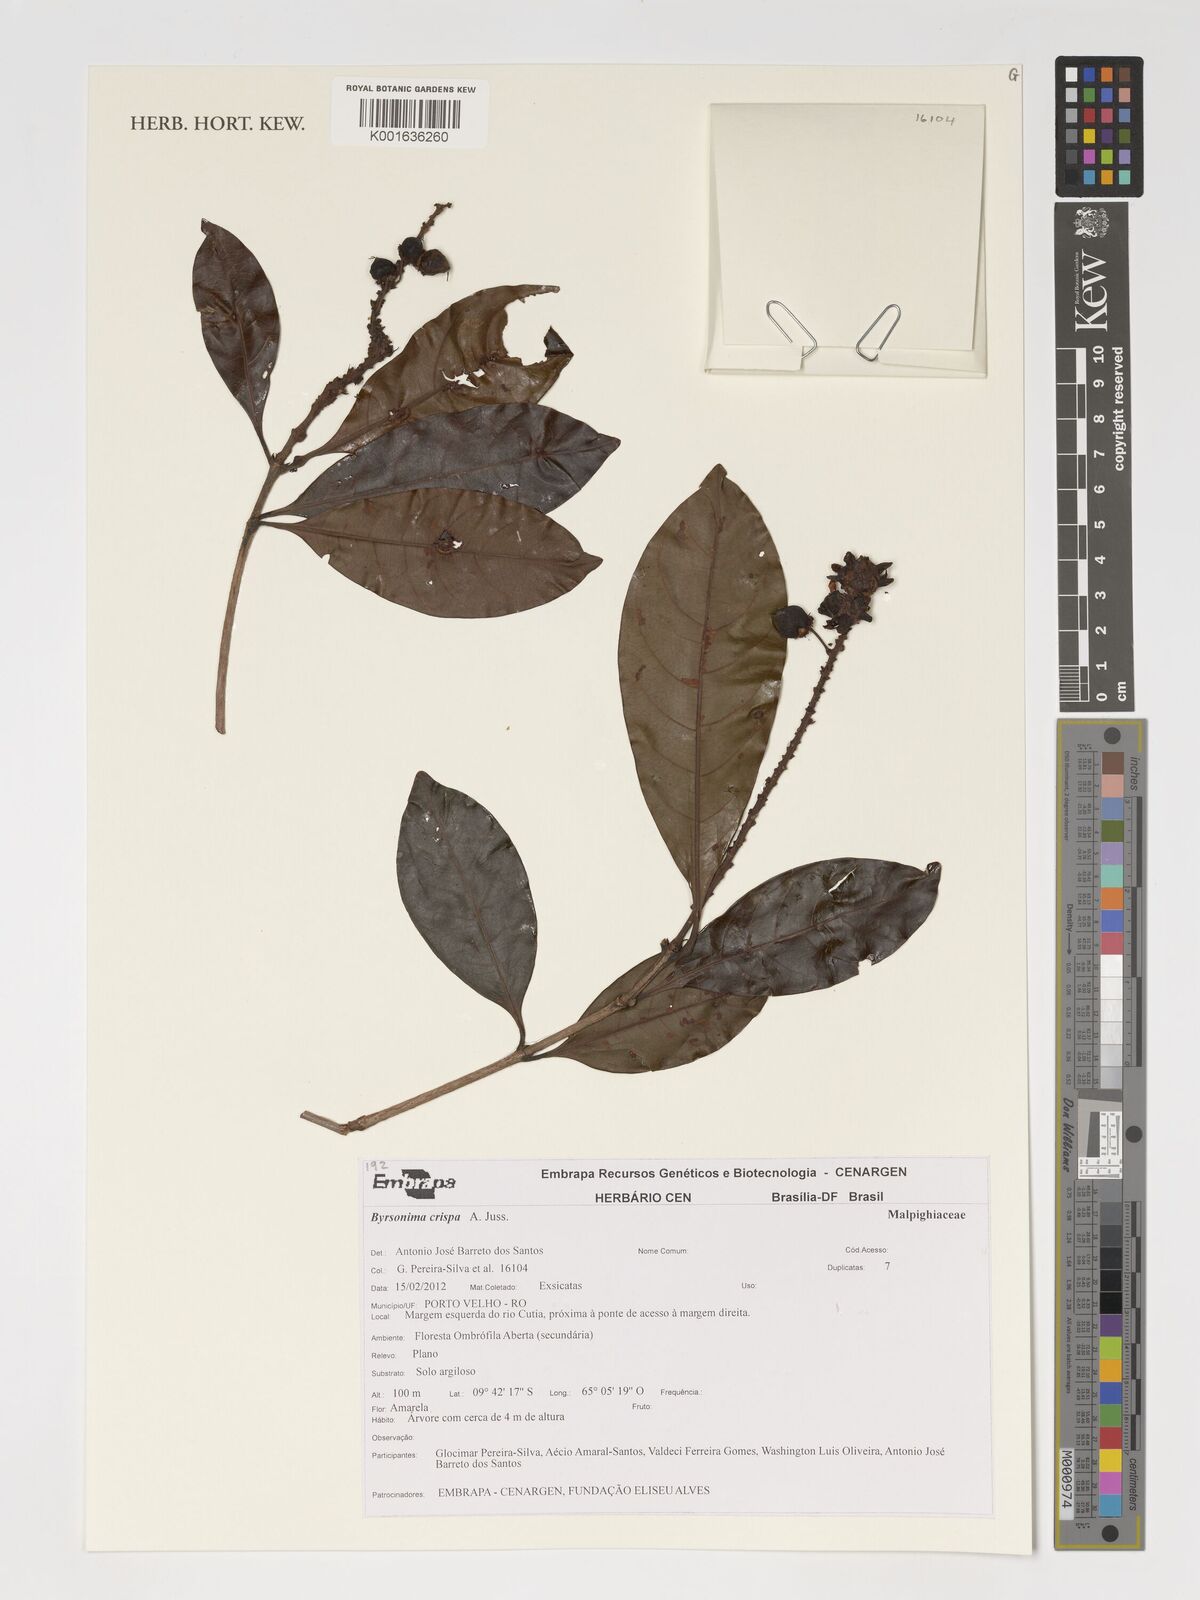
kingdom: Plantae
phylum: Tracheophyta
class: Magnoliopsida
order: Malpighiales
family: Malpighiaceae
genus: Byrsonima
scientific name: Byrsonima crispa
